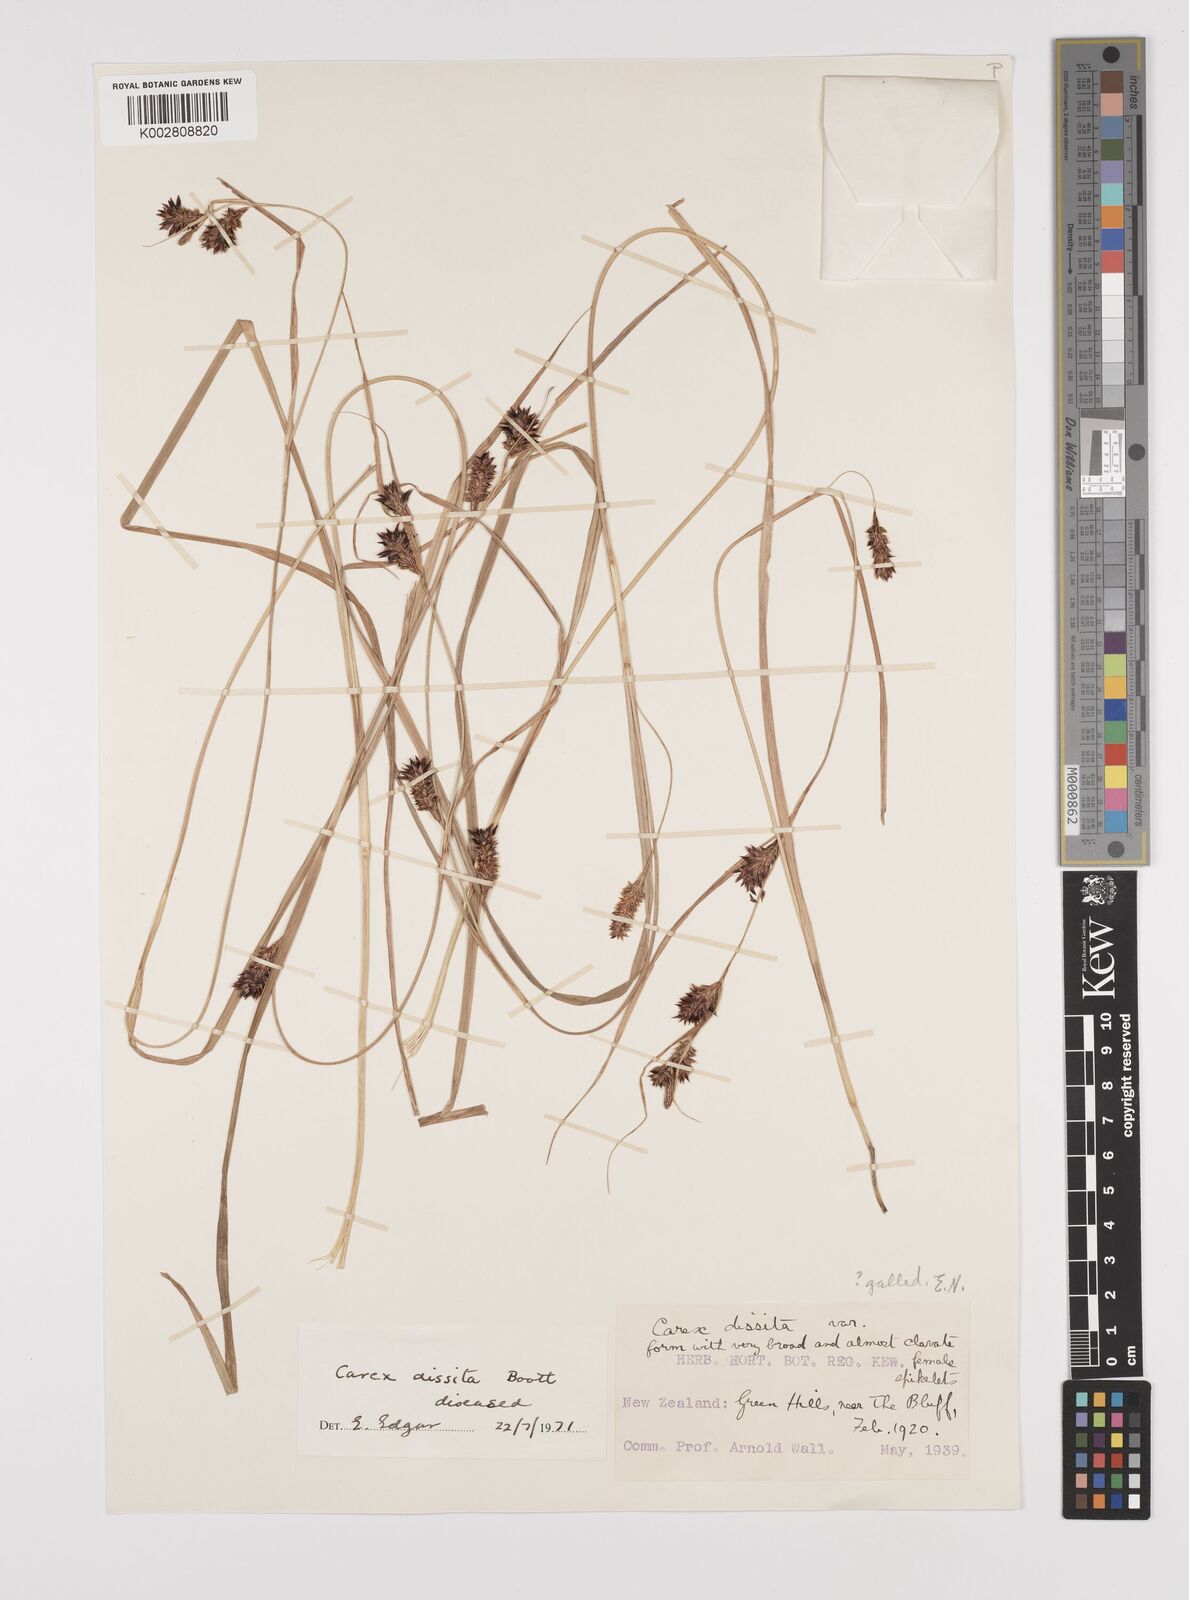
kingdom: Plantae
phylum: Tracheophyta
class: Liliopsida
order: Poales
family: Cyperaceae
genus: Carex
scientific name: Carex traversii
